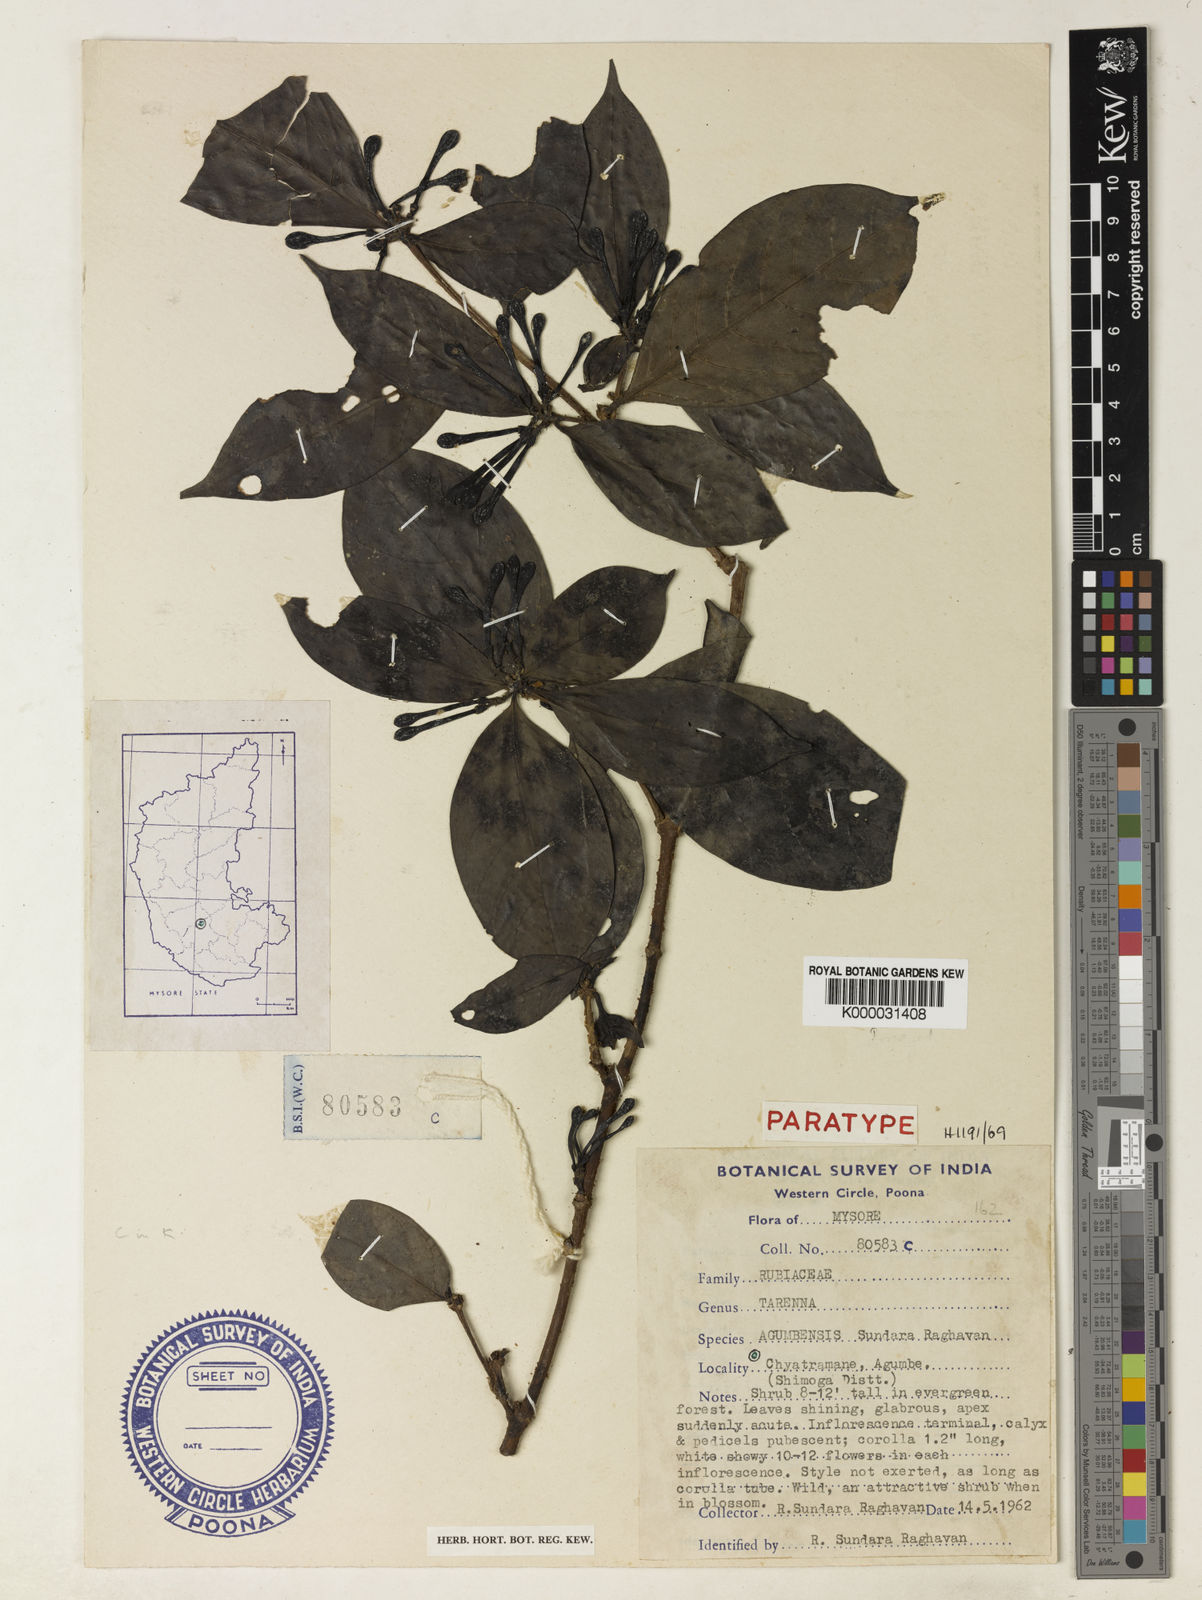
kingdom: Plantae
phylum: Tracheophyta
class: Magnoliopsida
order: Gentianales
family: Rubiaceae
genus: Tarenna
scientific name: Tarenna agumbensis
